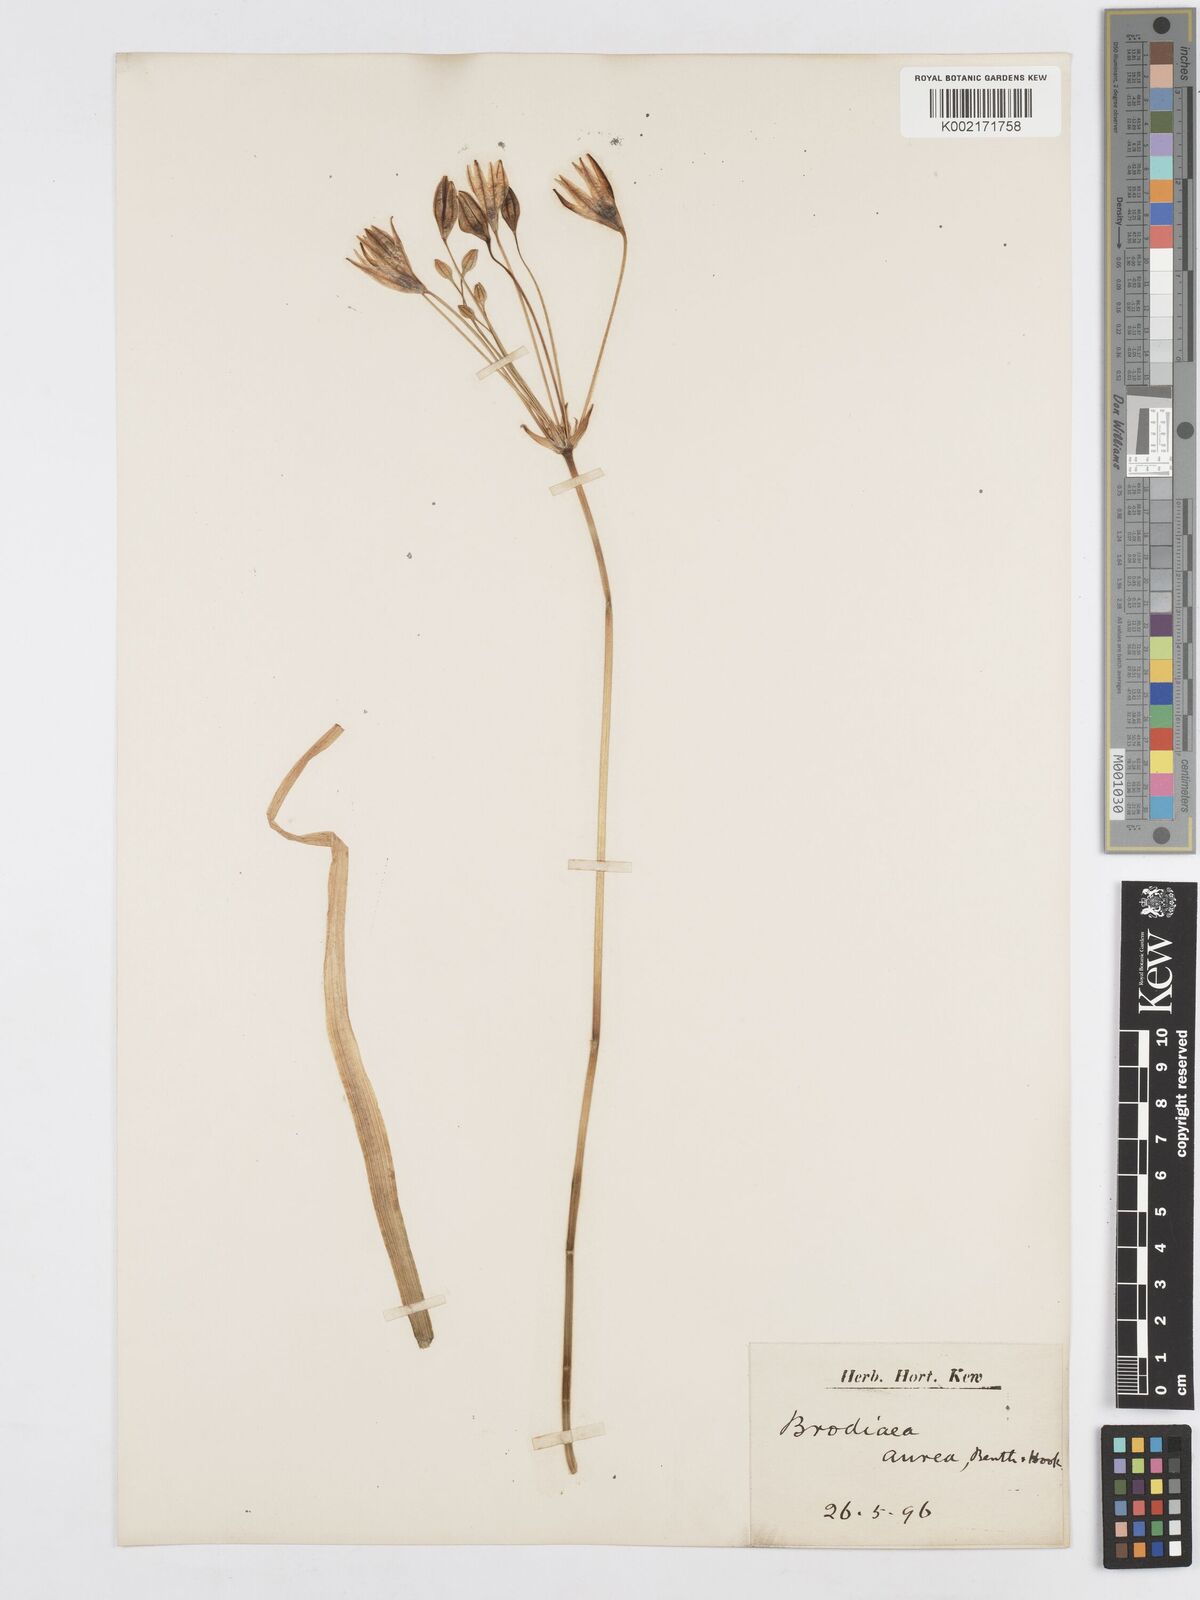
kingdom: Plantae
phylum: Tracheophyta
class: Liliopsida
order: Asparagales
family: Asparagaceae
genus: Triteleia
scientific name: Triteleia ixioides
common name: Yellow-brodiaea
